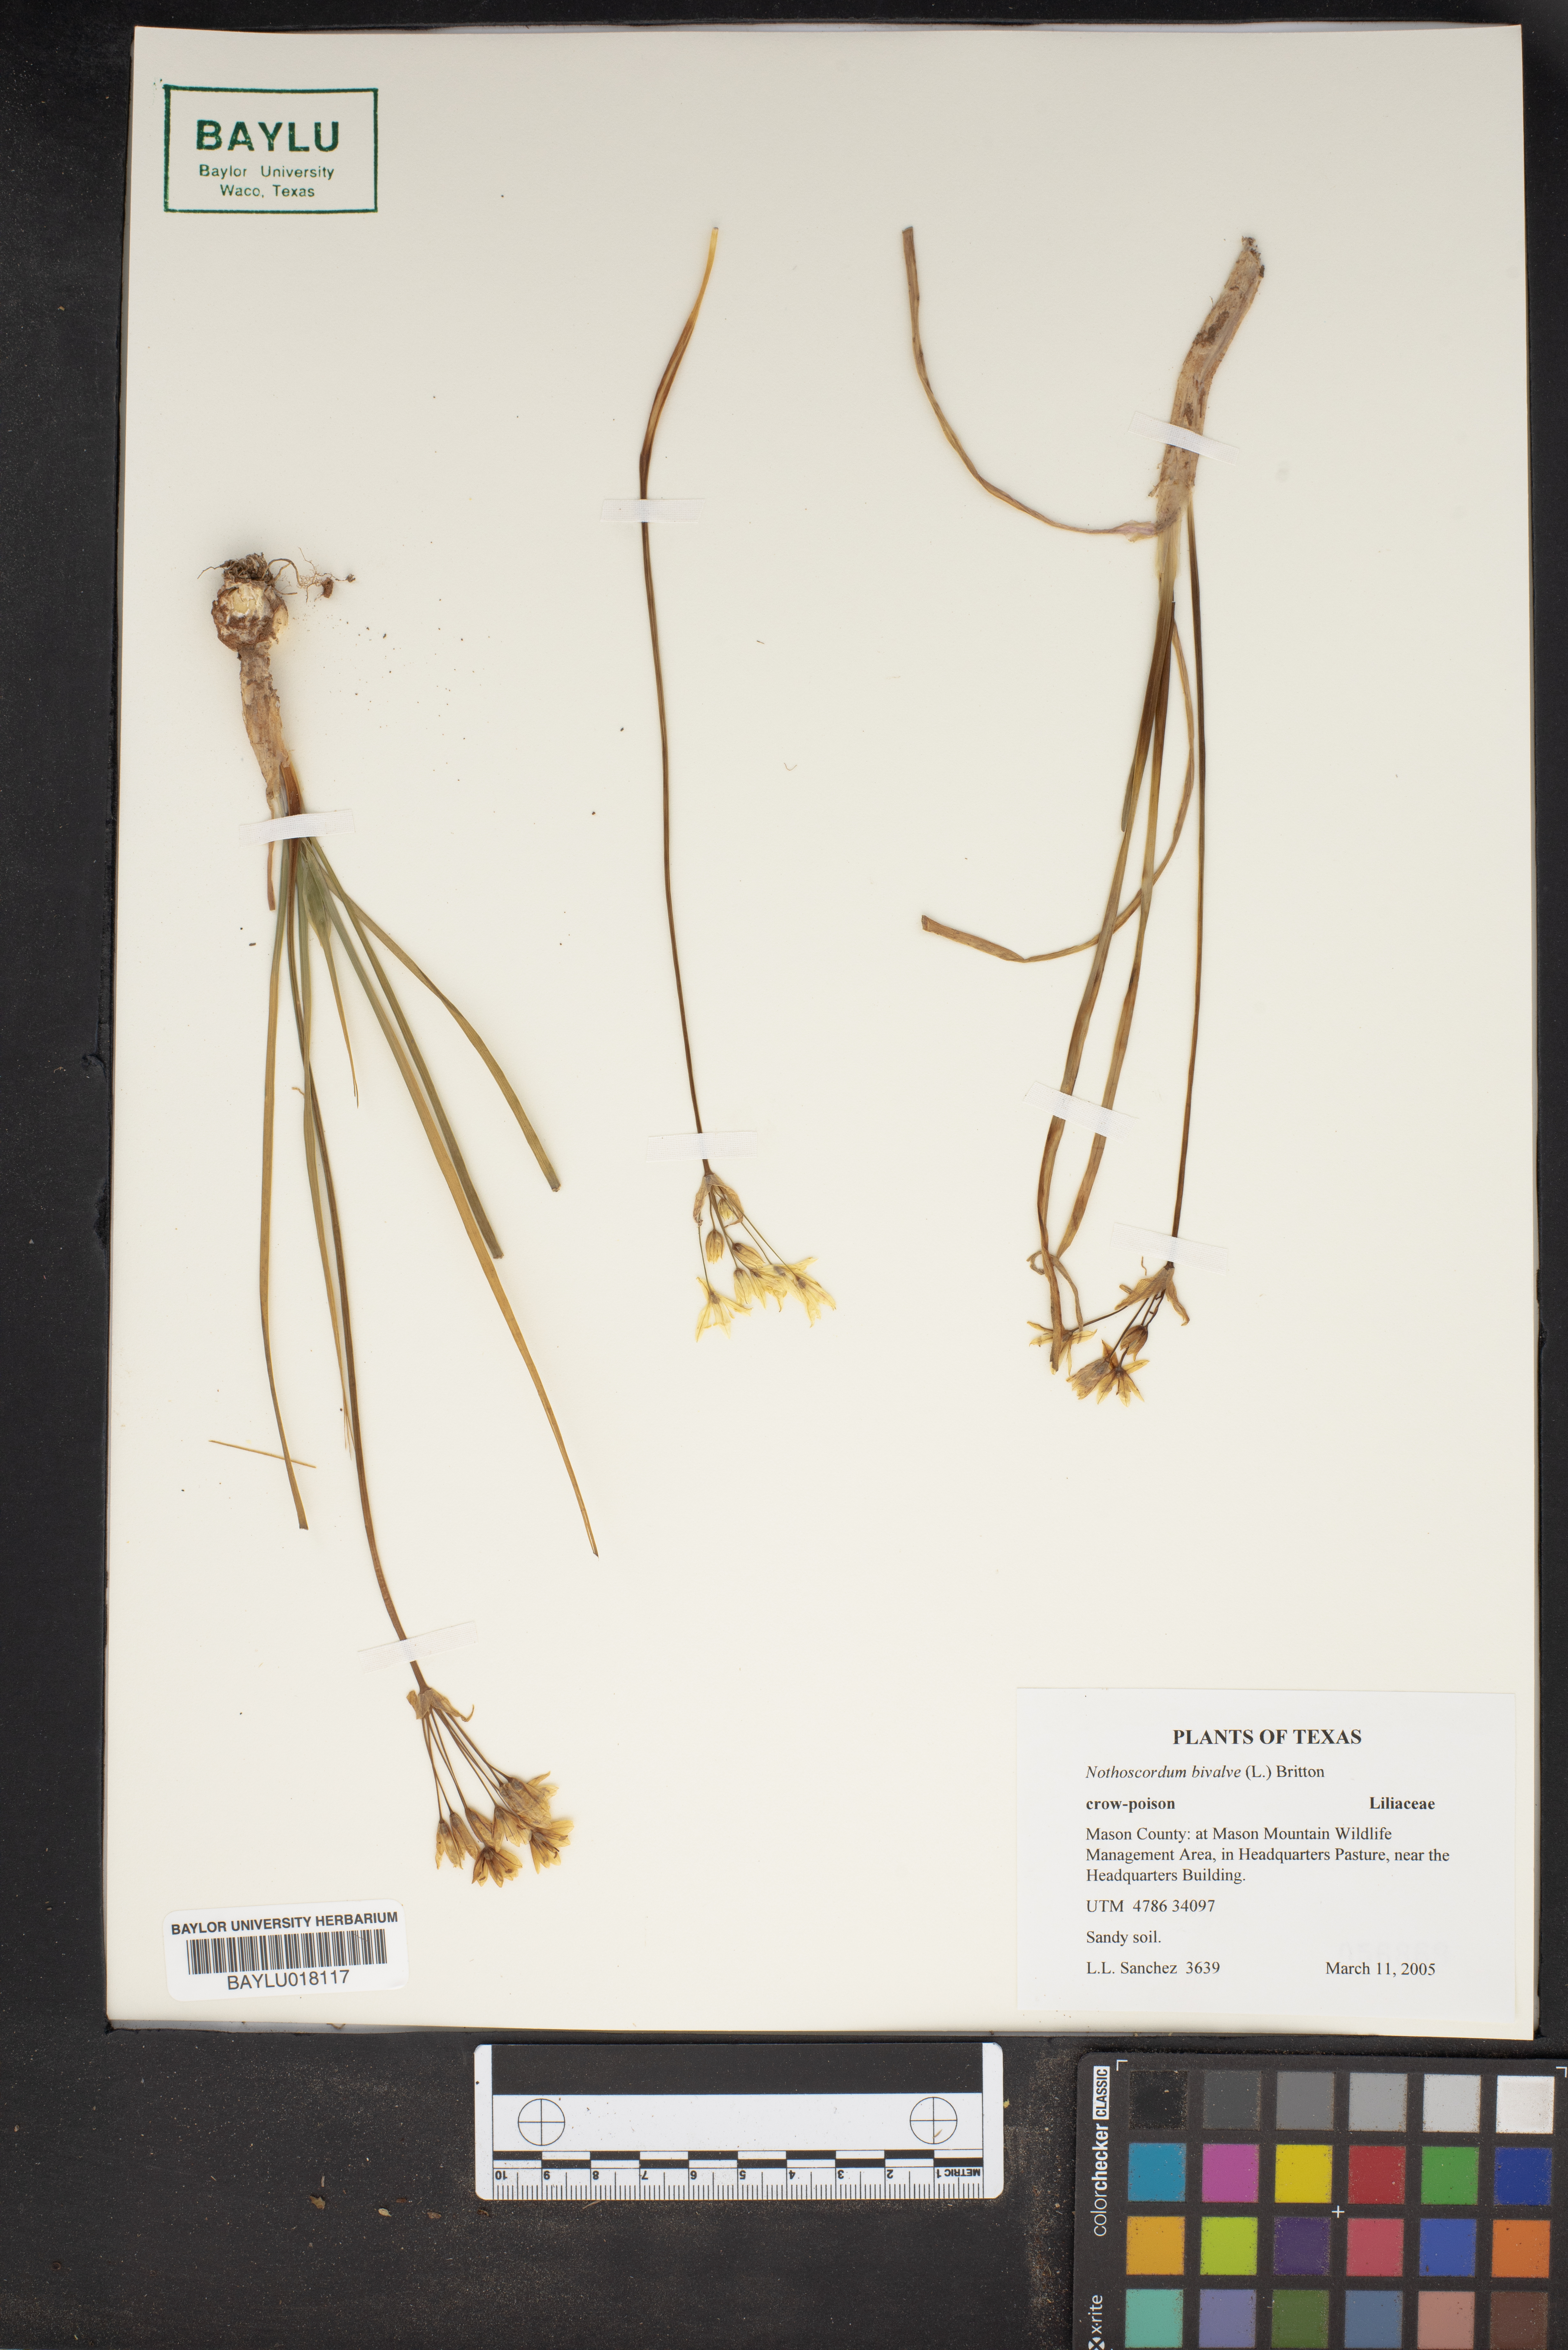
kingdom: Plantae
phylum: Tracheophyta
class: Liliopsida
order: Asparagales
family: Amaryllidaceae
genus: Nothoscordum
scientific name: Nothoscordum bivalve
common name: Crow-poison
